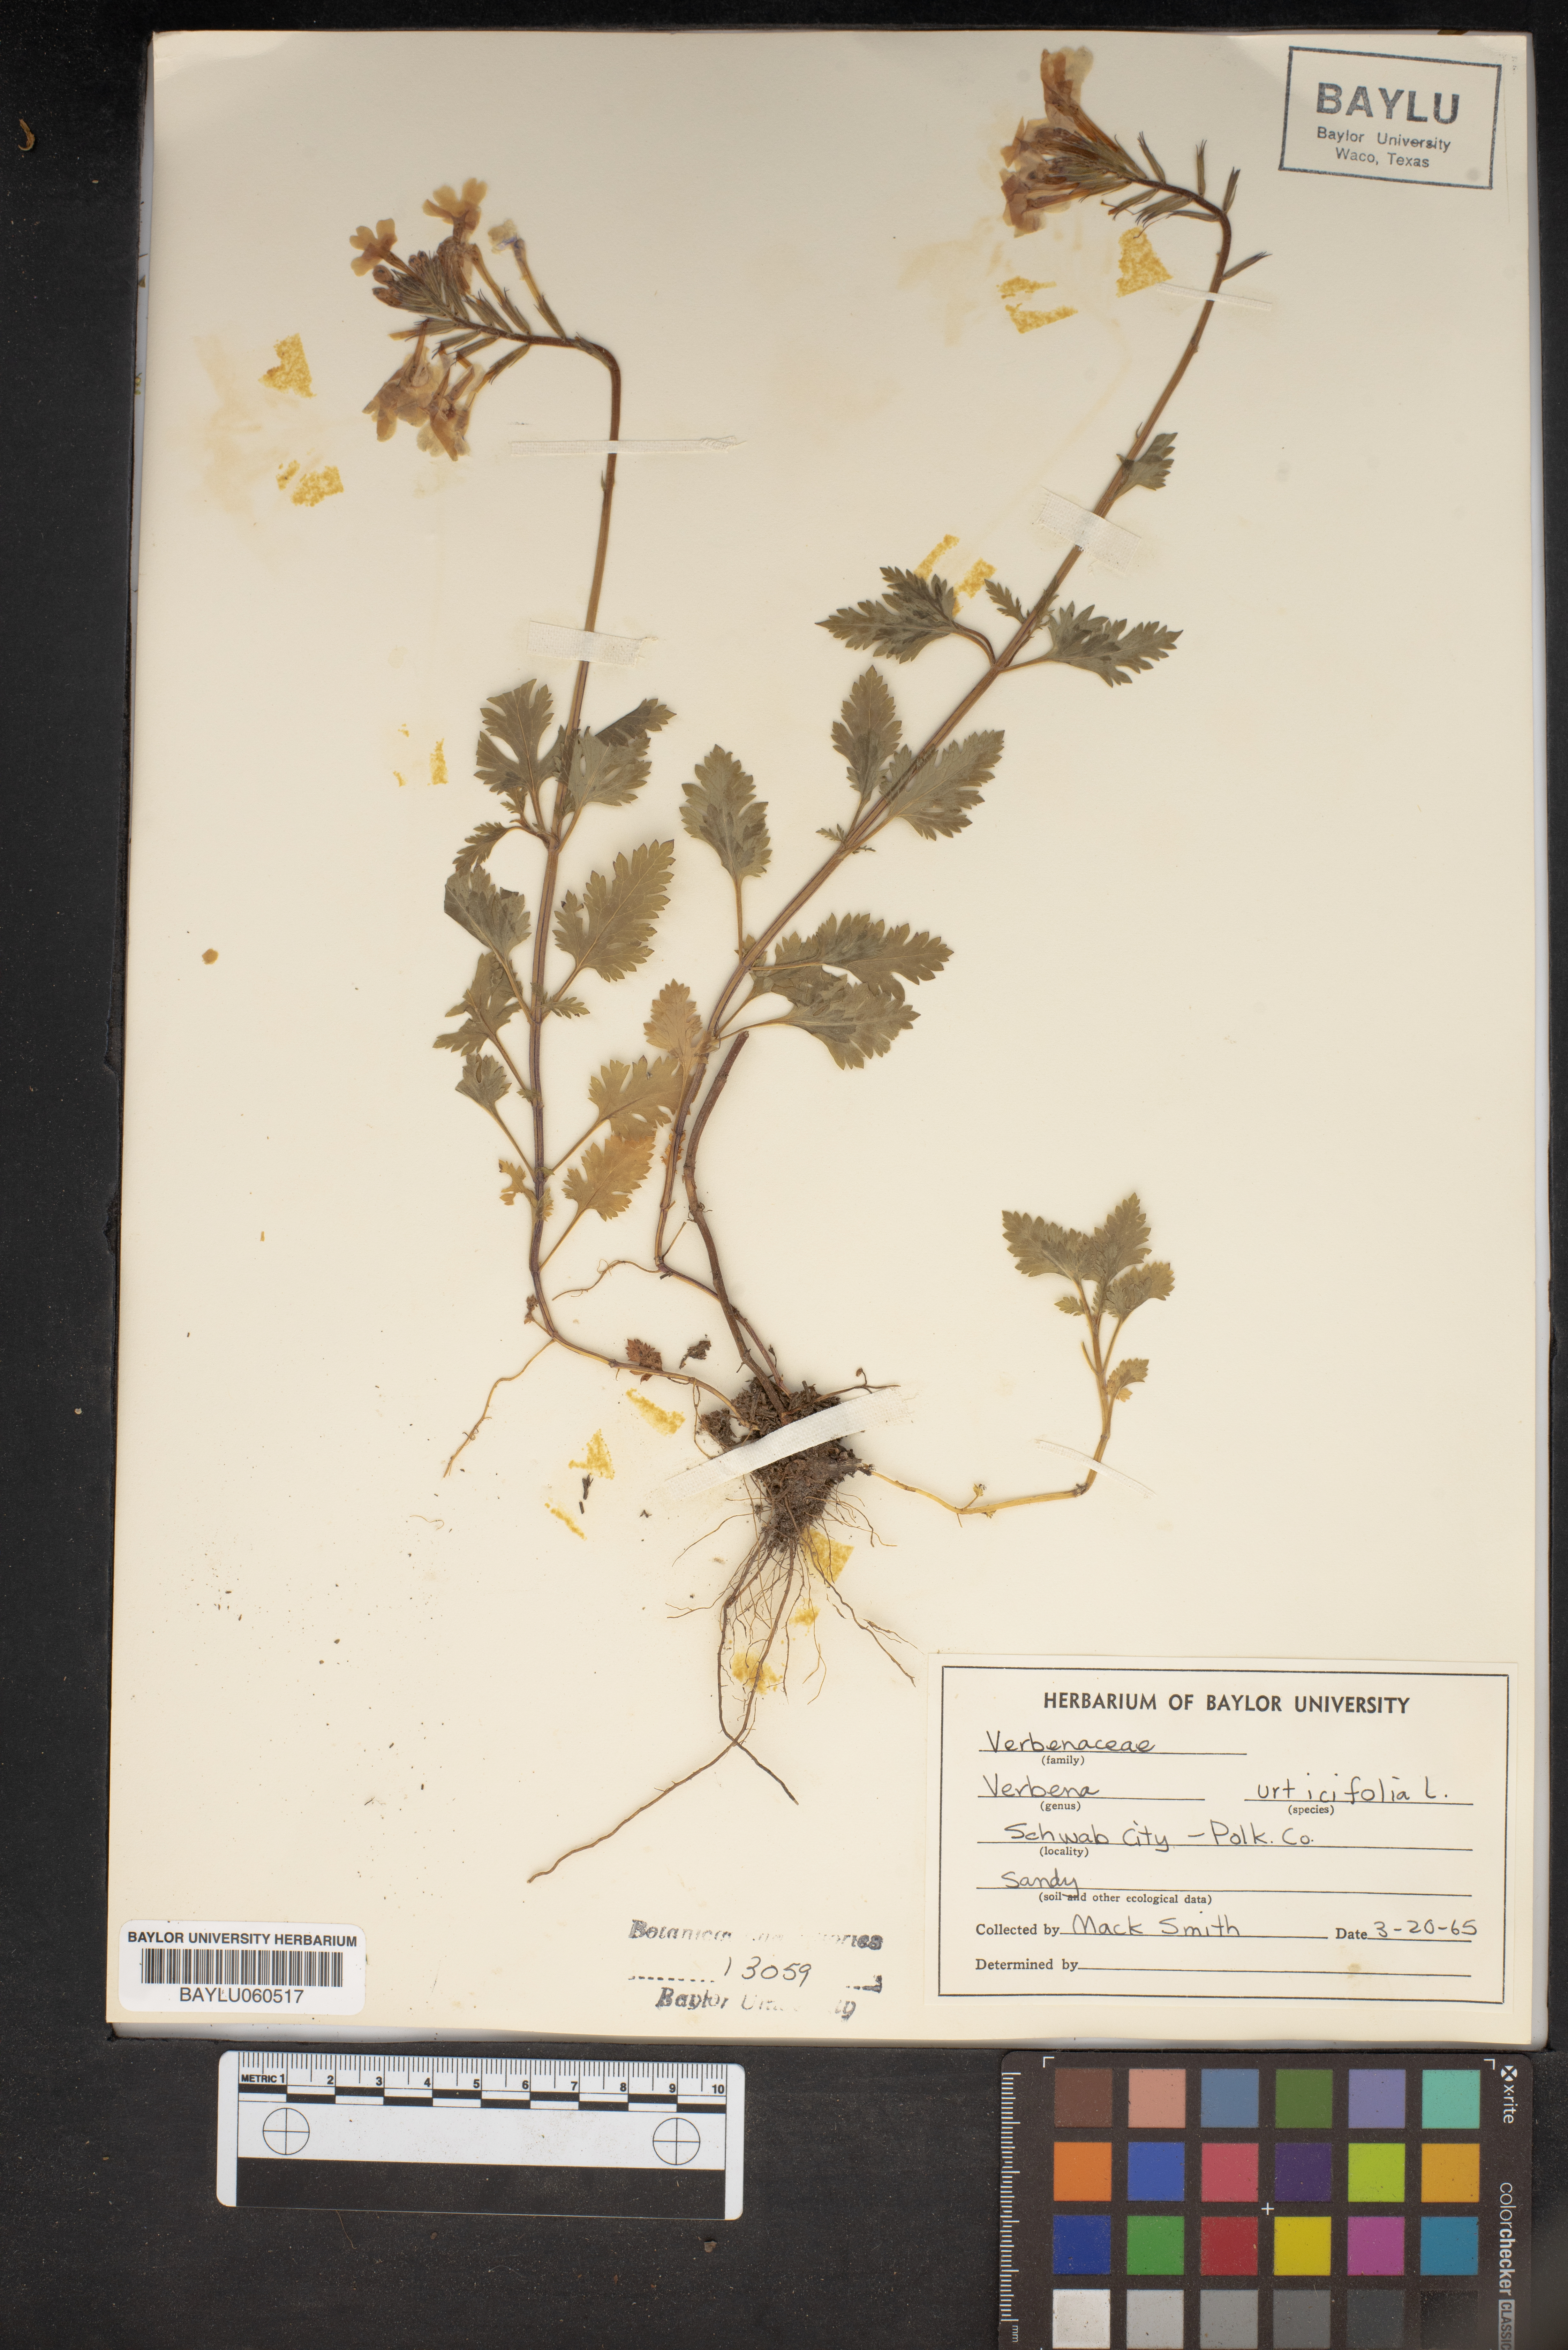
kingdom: Plantae
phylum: Tracheophyta
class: Magnoliopsida
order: Lamiales
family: Verbenaceae
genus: Verbena
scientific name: Verbena urticifolia
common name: Nettle-leaved vervain
